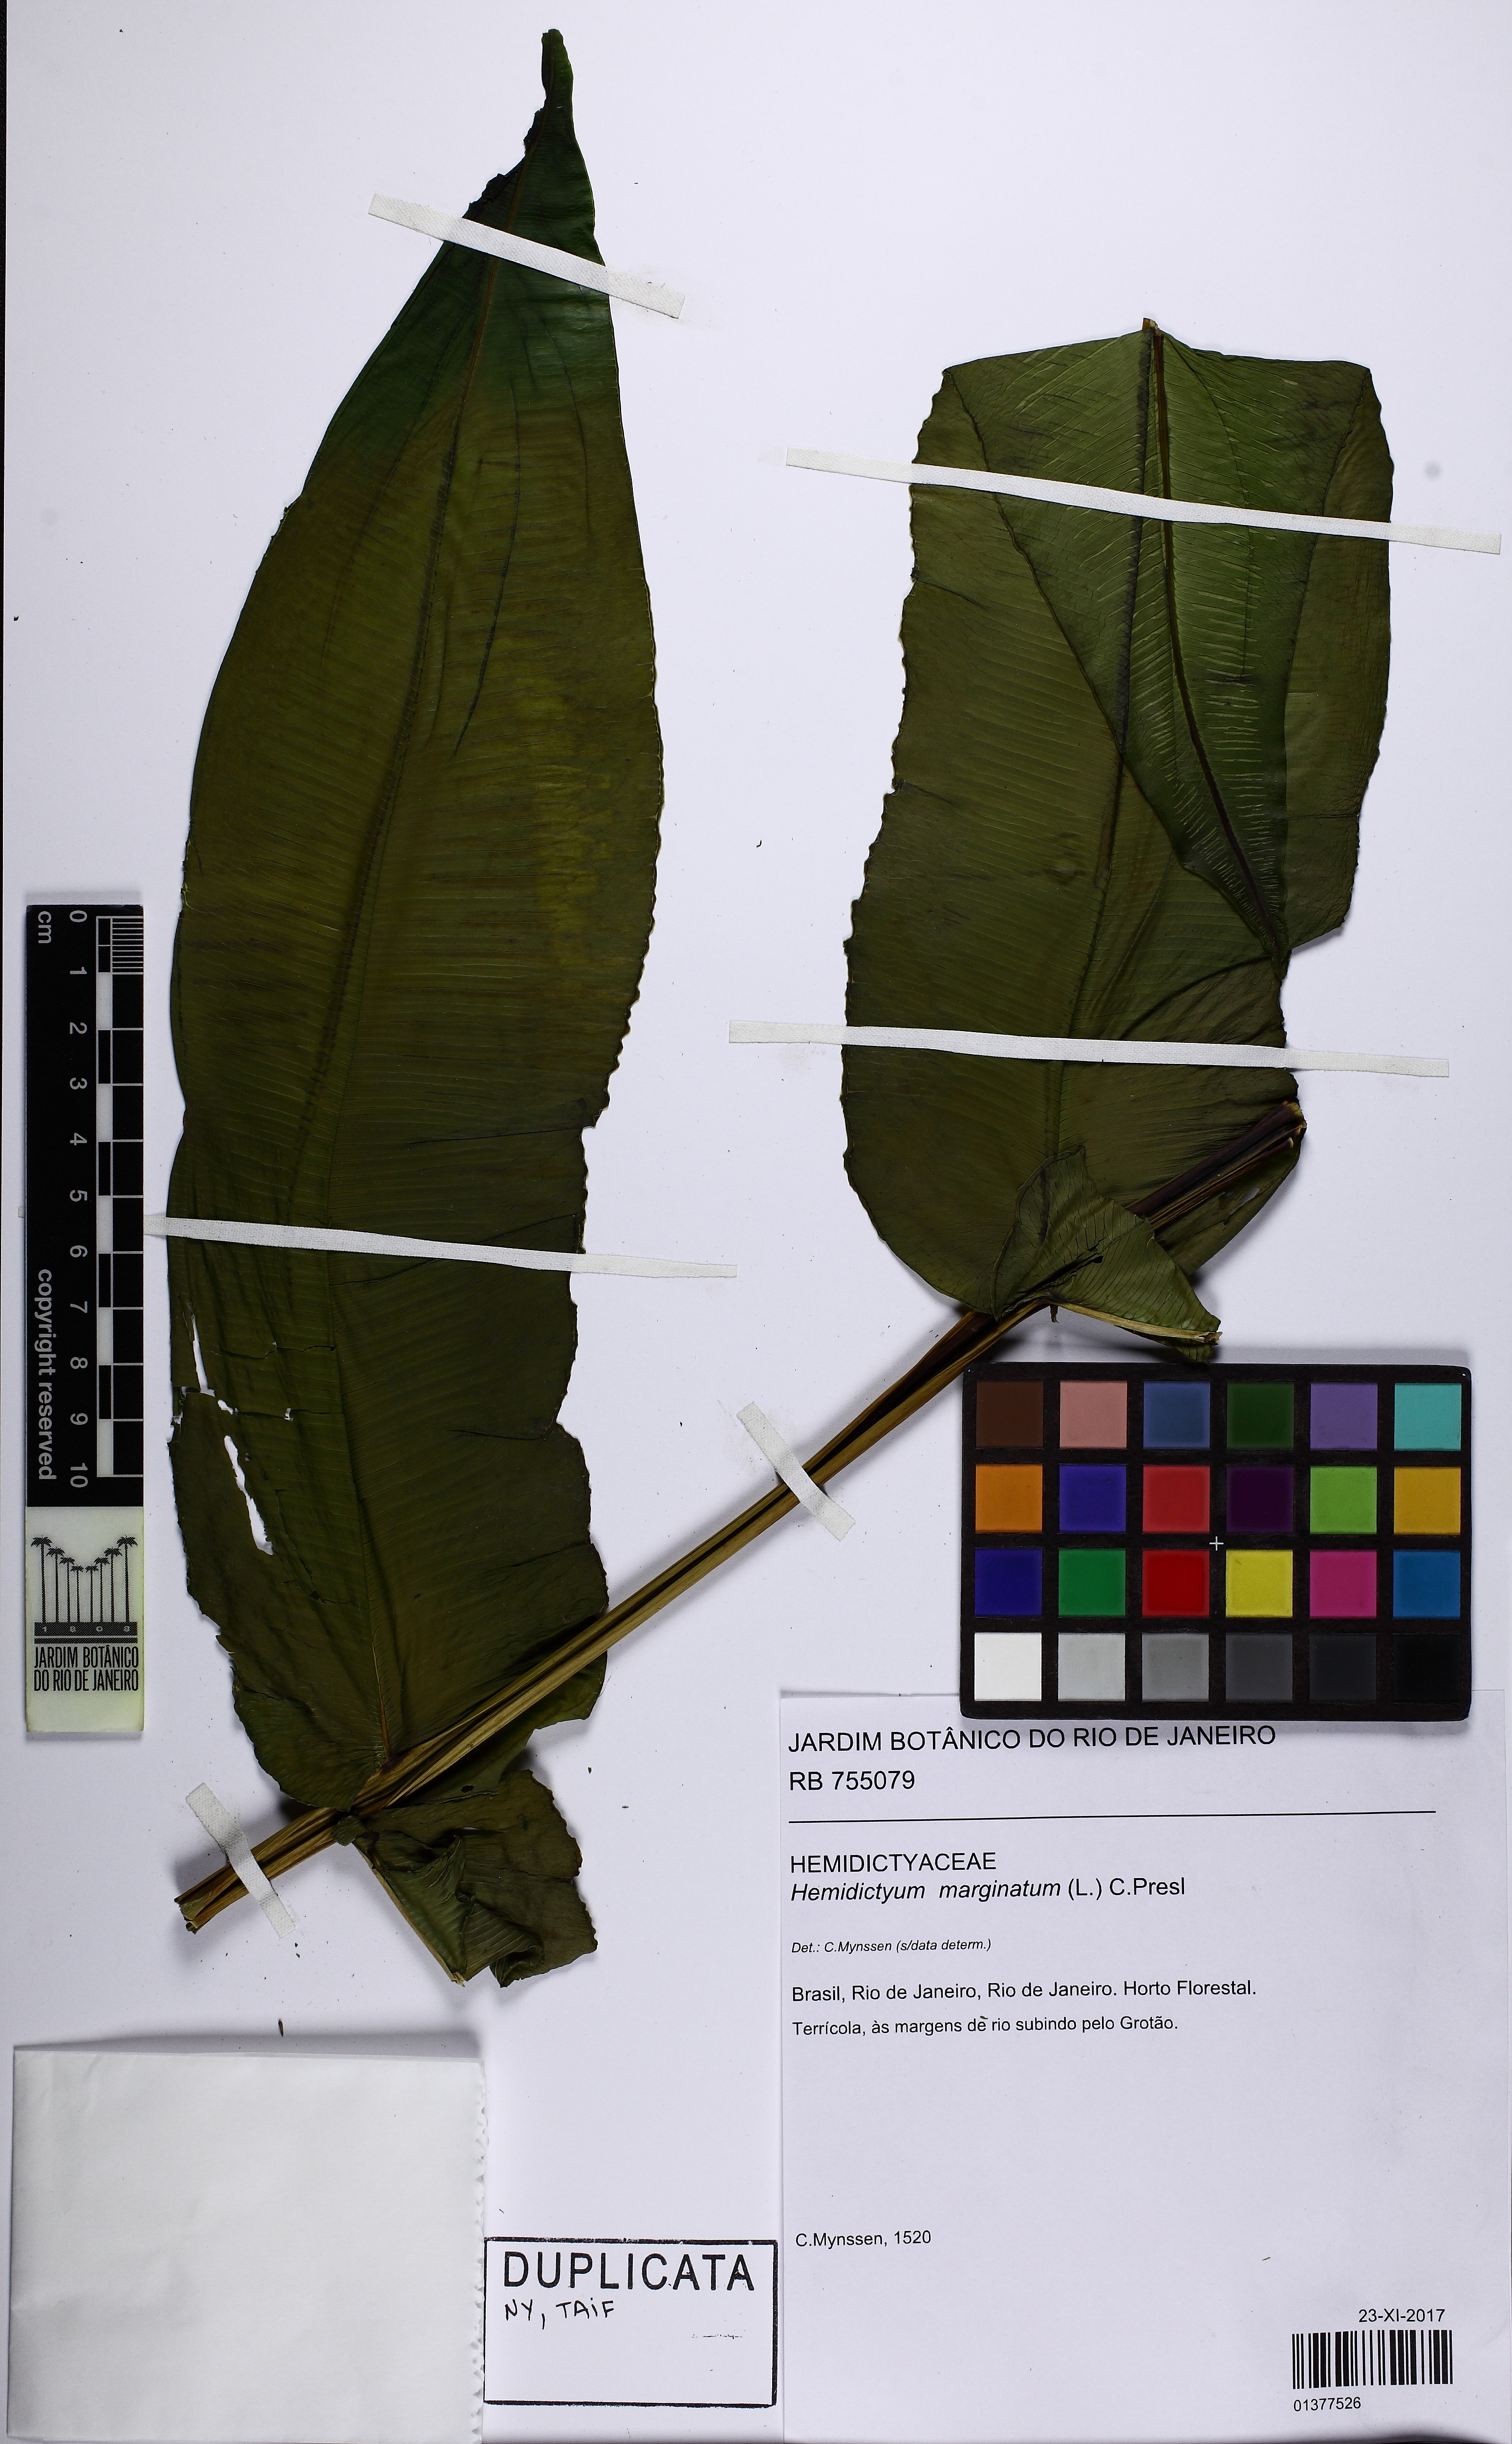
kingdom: Plantae
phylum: Tracheophyta
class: Polypodiopsida
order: Polypodiales
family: Hemidictyaceae
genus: Hemidictyum
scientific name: Hemidictyum marginatum
